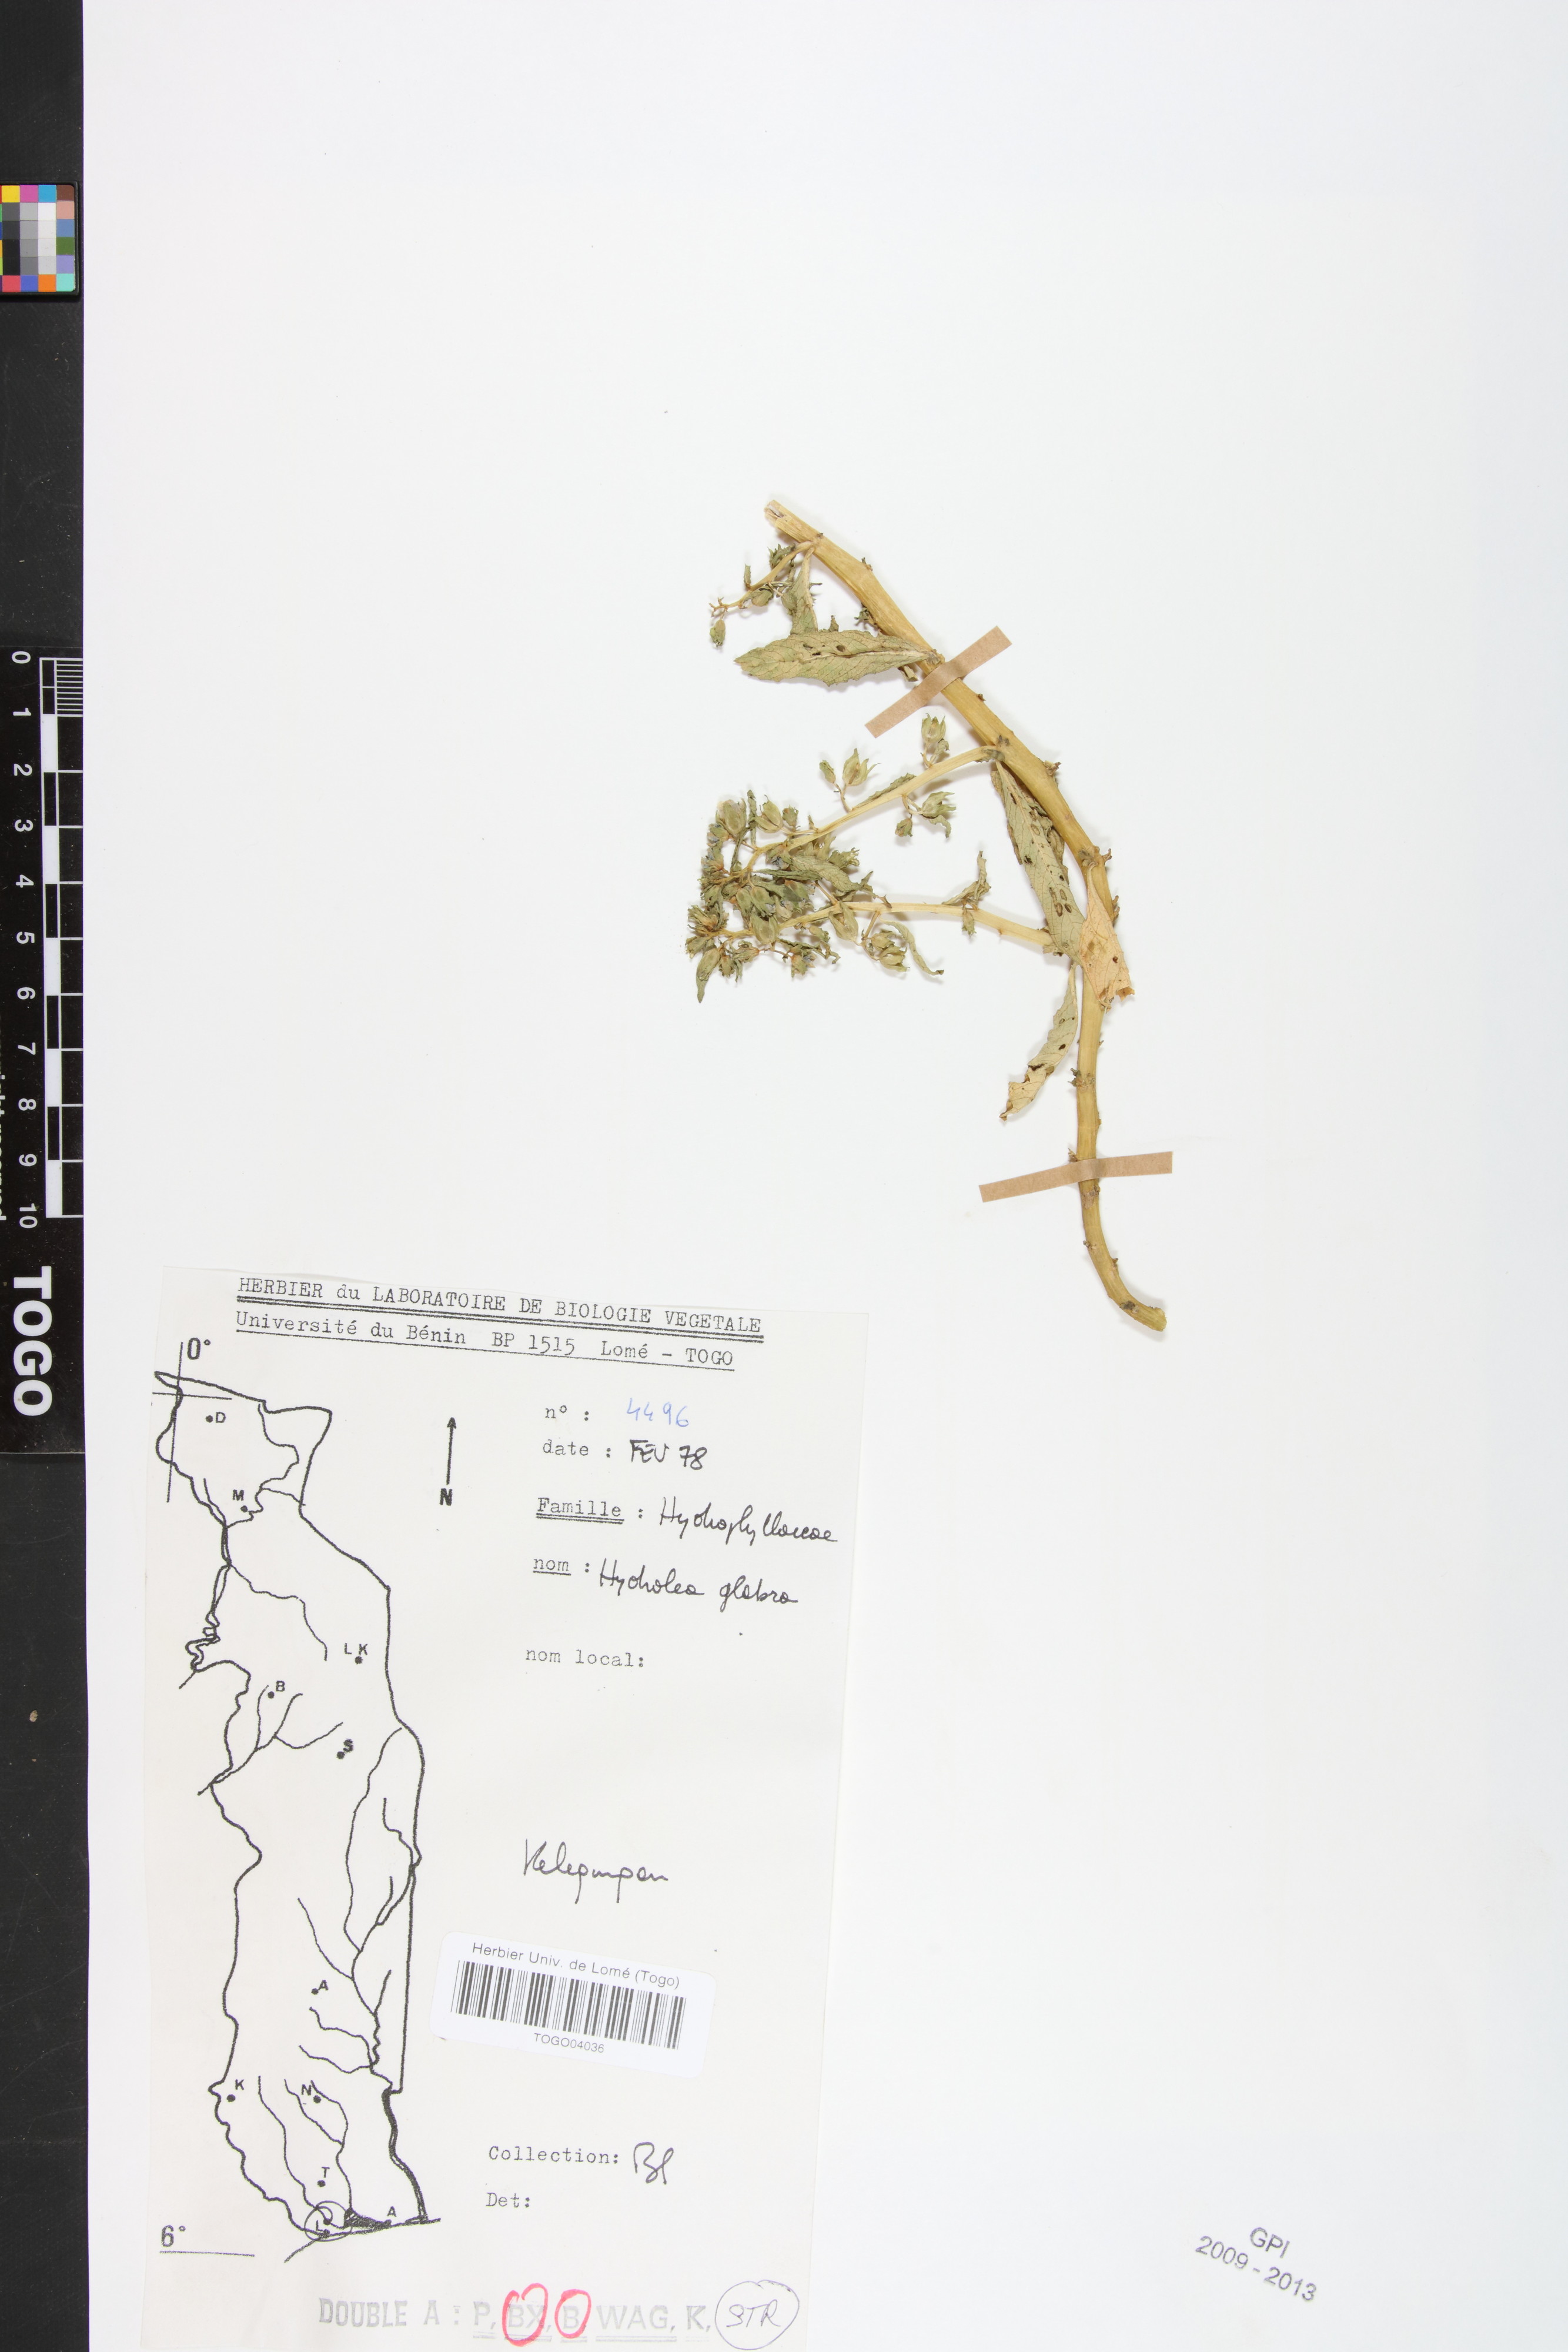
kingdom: Plantae
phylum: Tracheophyta
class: Magnoliopsida
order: Solanales
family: Hydroleaceae
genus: Hydrolea
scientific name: Hydrolea palustris
